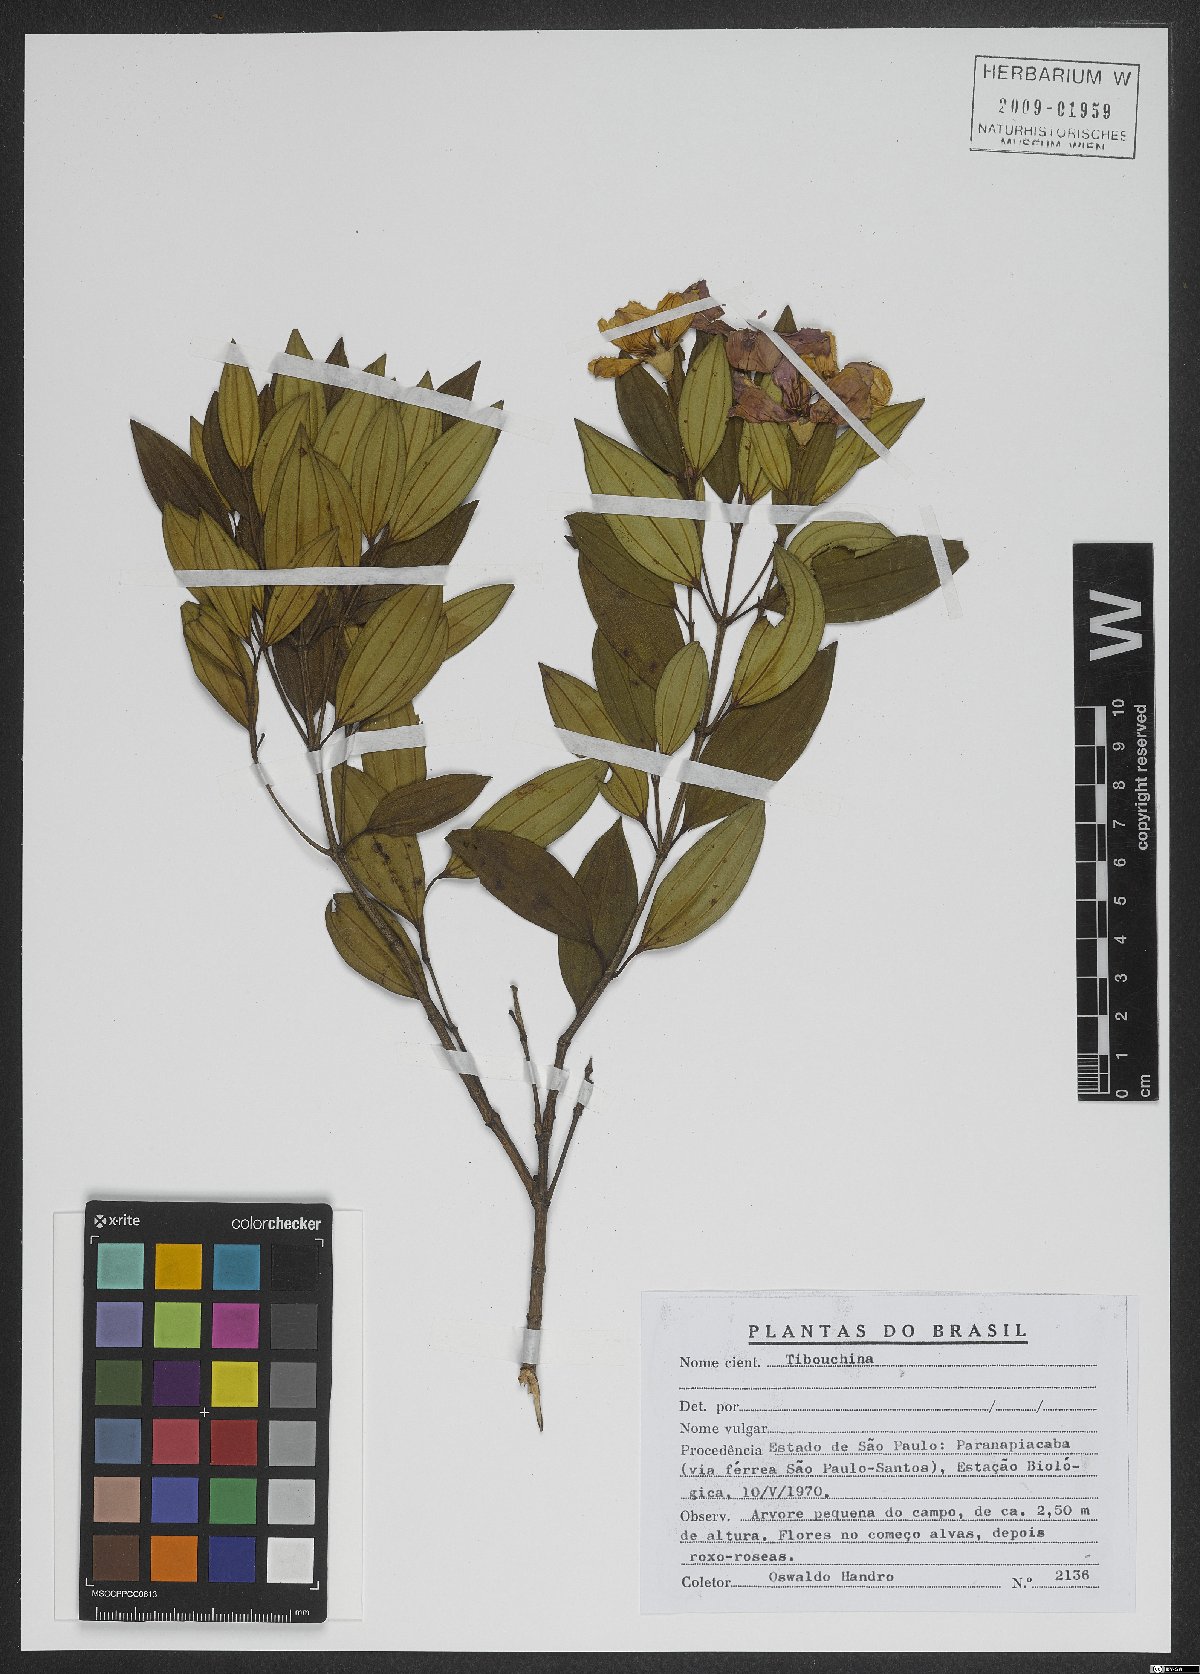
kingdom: Plantae
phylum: Tracheophyta
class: Magnoliopsida
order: Myrtales
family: Melastomataceae
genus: Tibouchina
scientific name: Tibouchina
